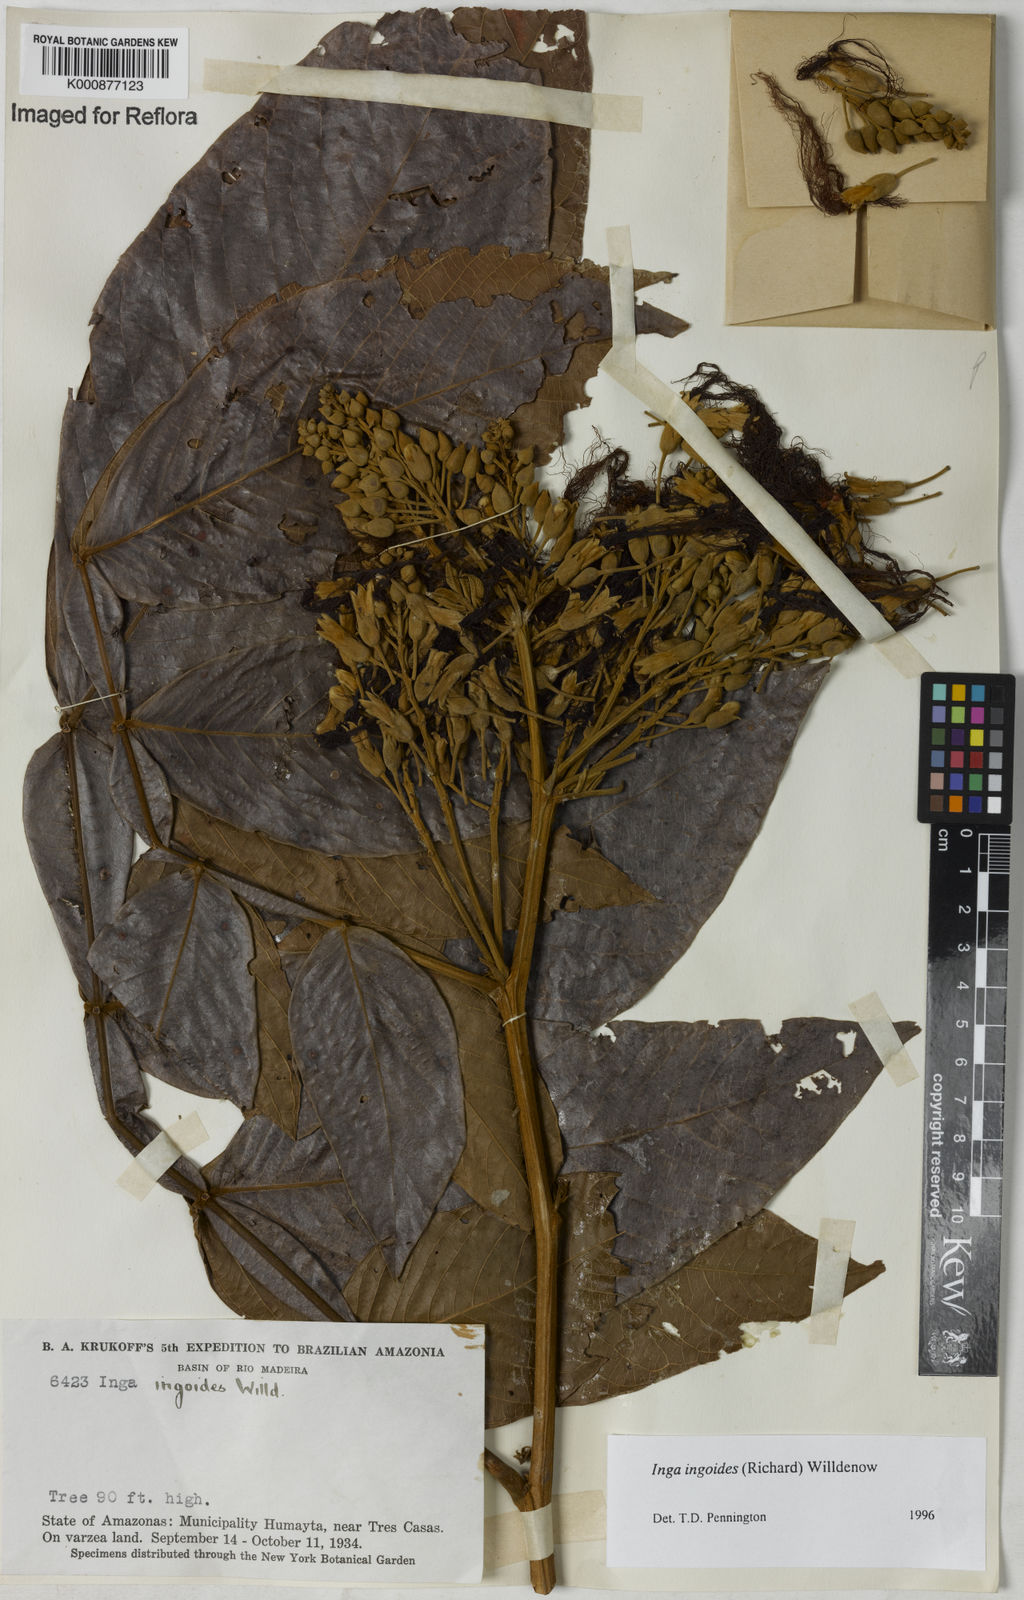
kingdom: Plantae
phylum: Tracheophyta
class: Magnoliopsida
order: Fabales
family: Fabaceae
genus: Inga
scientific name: Inga ingoides
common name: Spanish ash
